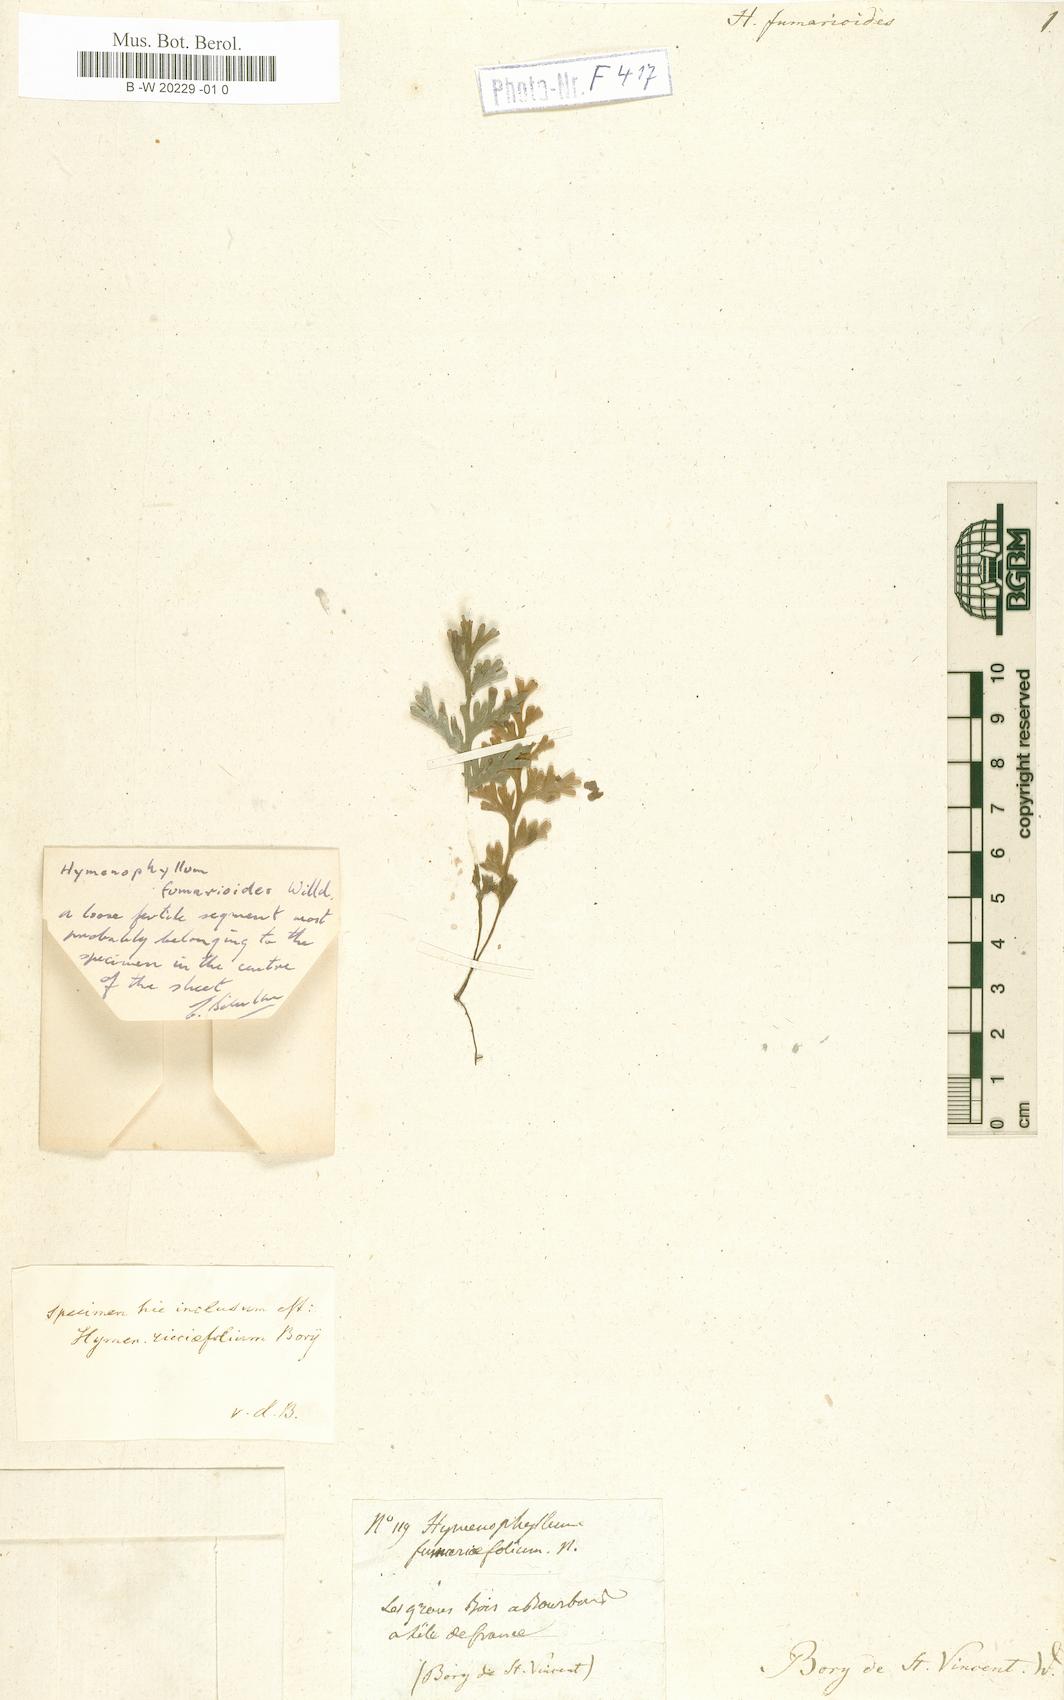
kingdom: Plantae
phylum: Tracheophyta
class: Polypodiopsida
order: Hymenophyllales
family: Hymenophyllaceae
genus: Hymenophyllum
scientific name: Hymenophyllum fumarioides
